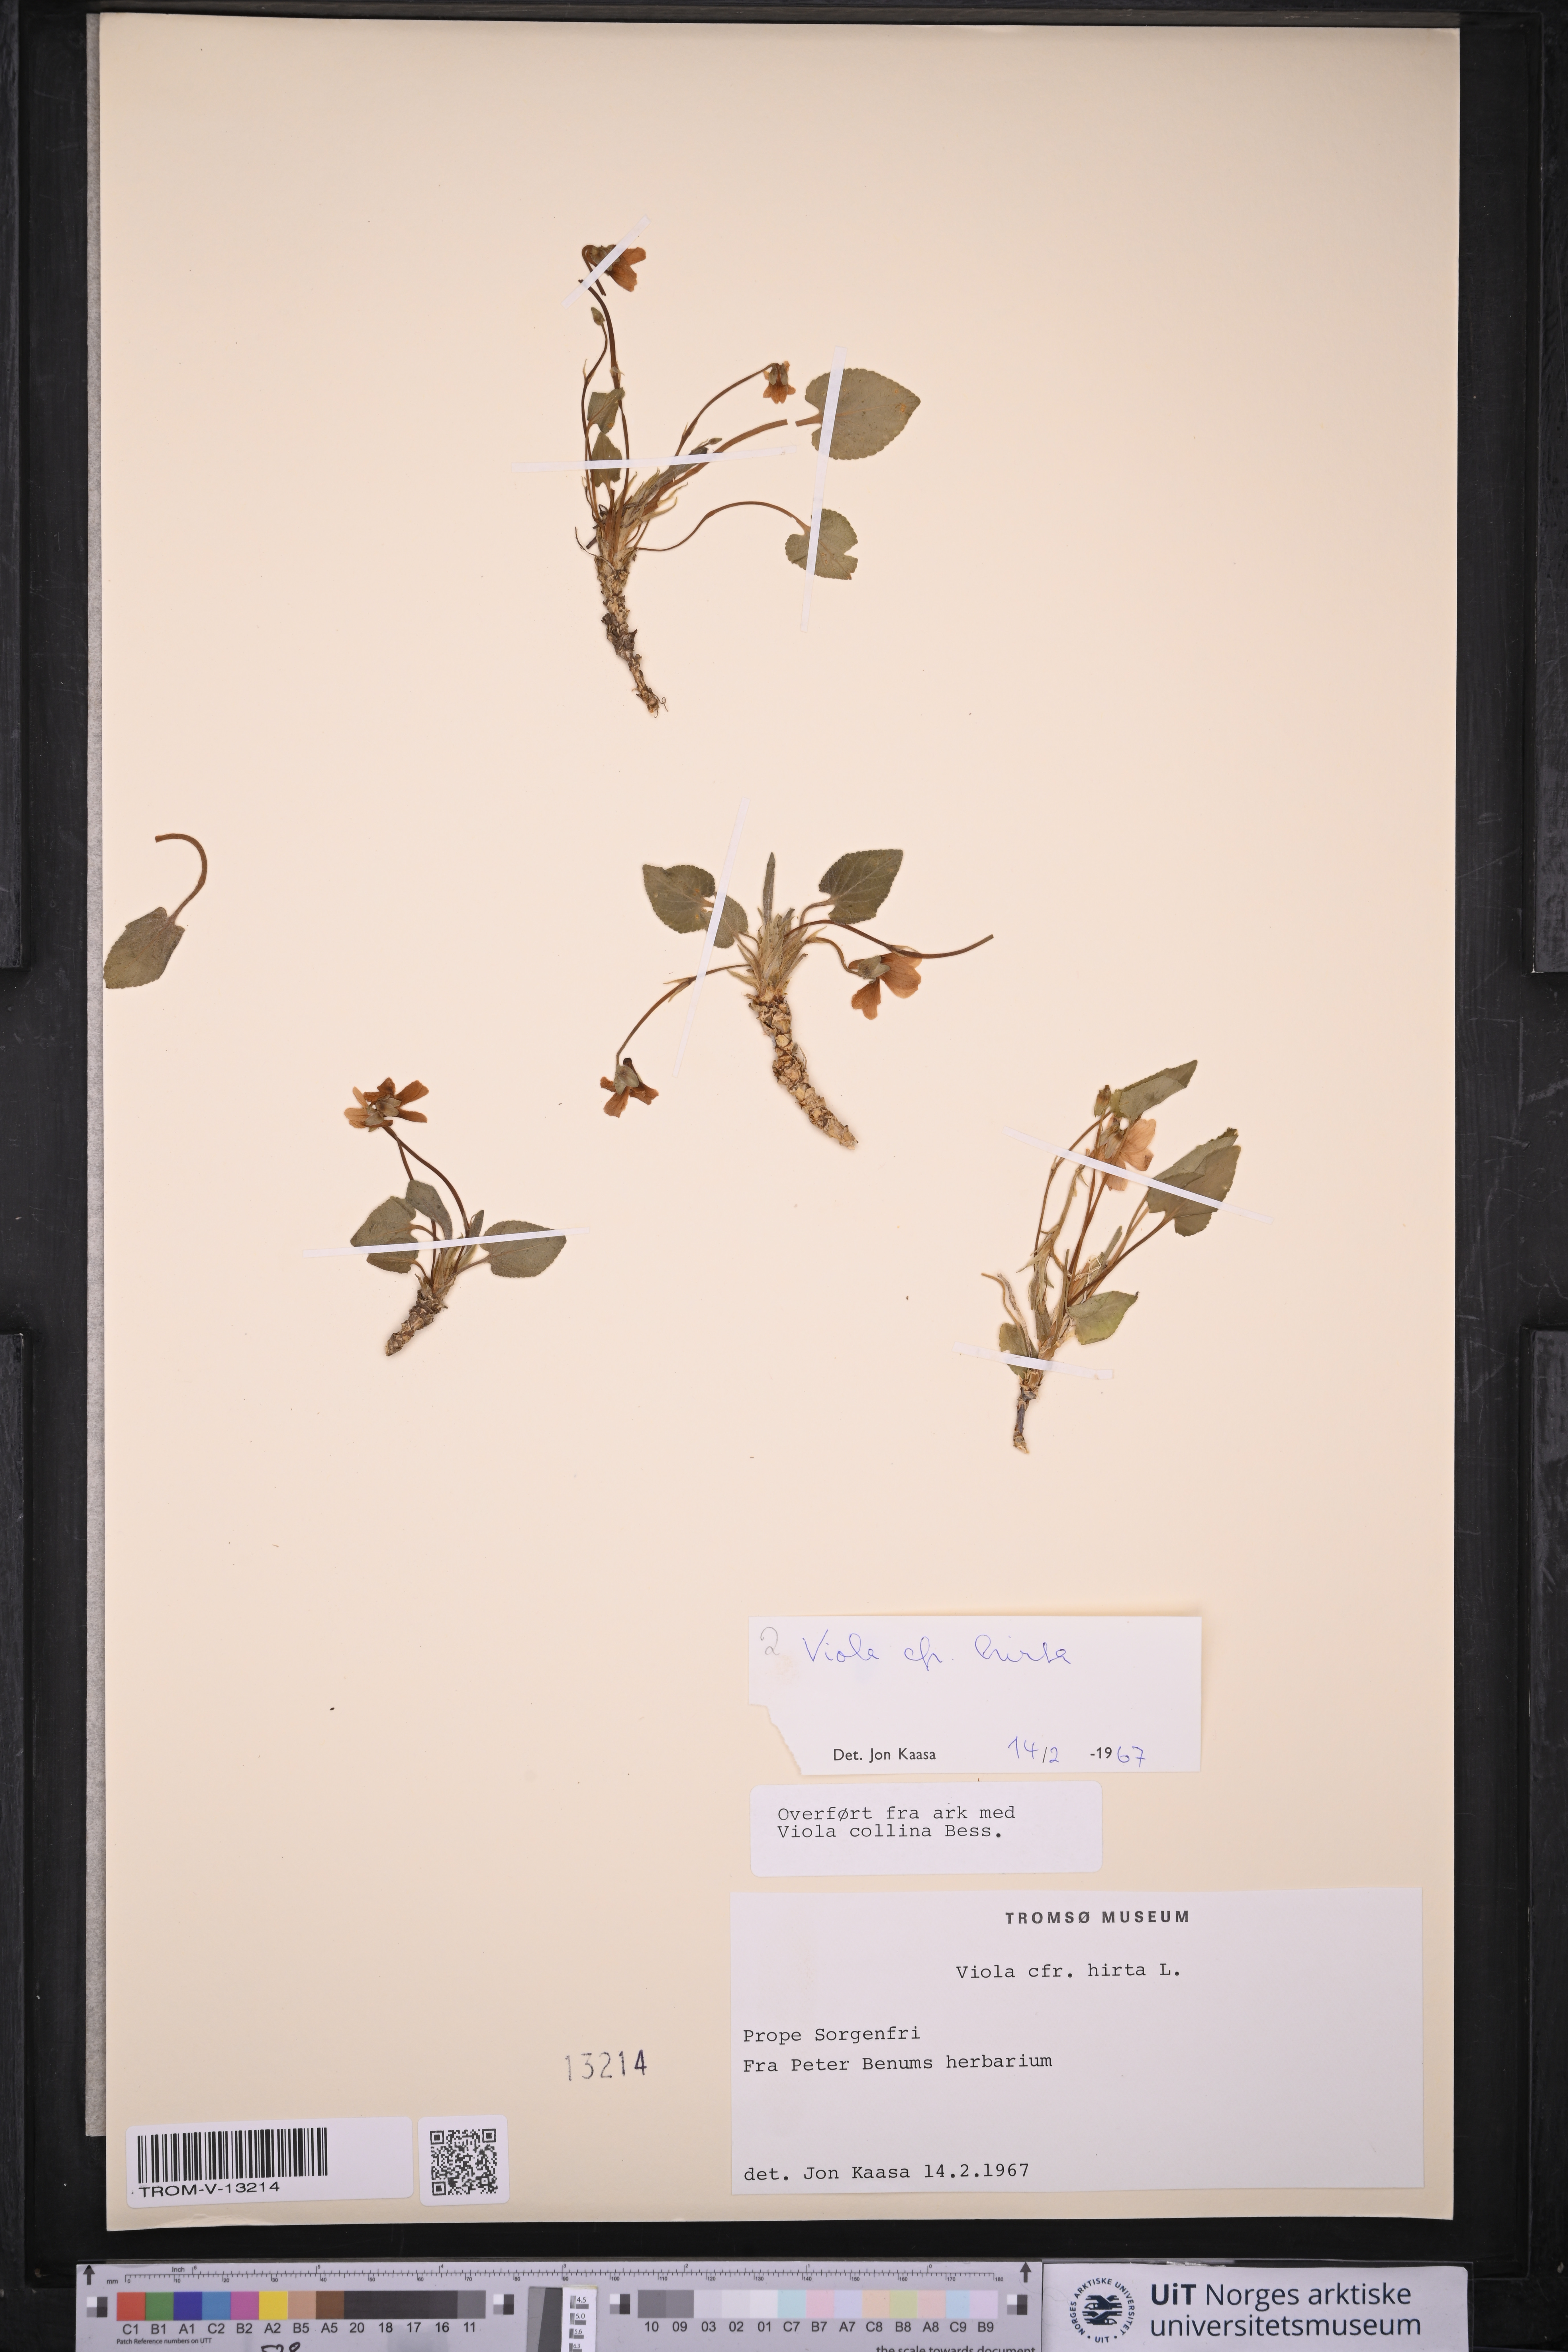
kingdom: Plantae
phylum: Tracheophyta
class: Magnoliopsida
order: Malpighiales
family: Violaceae
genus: Viola
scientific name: Viola hirta
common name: Hairy violet
